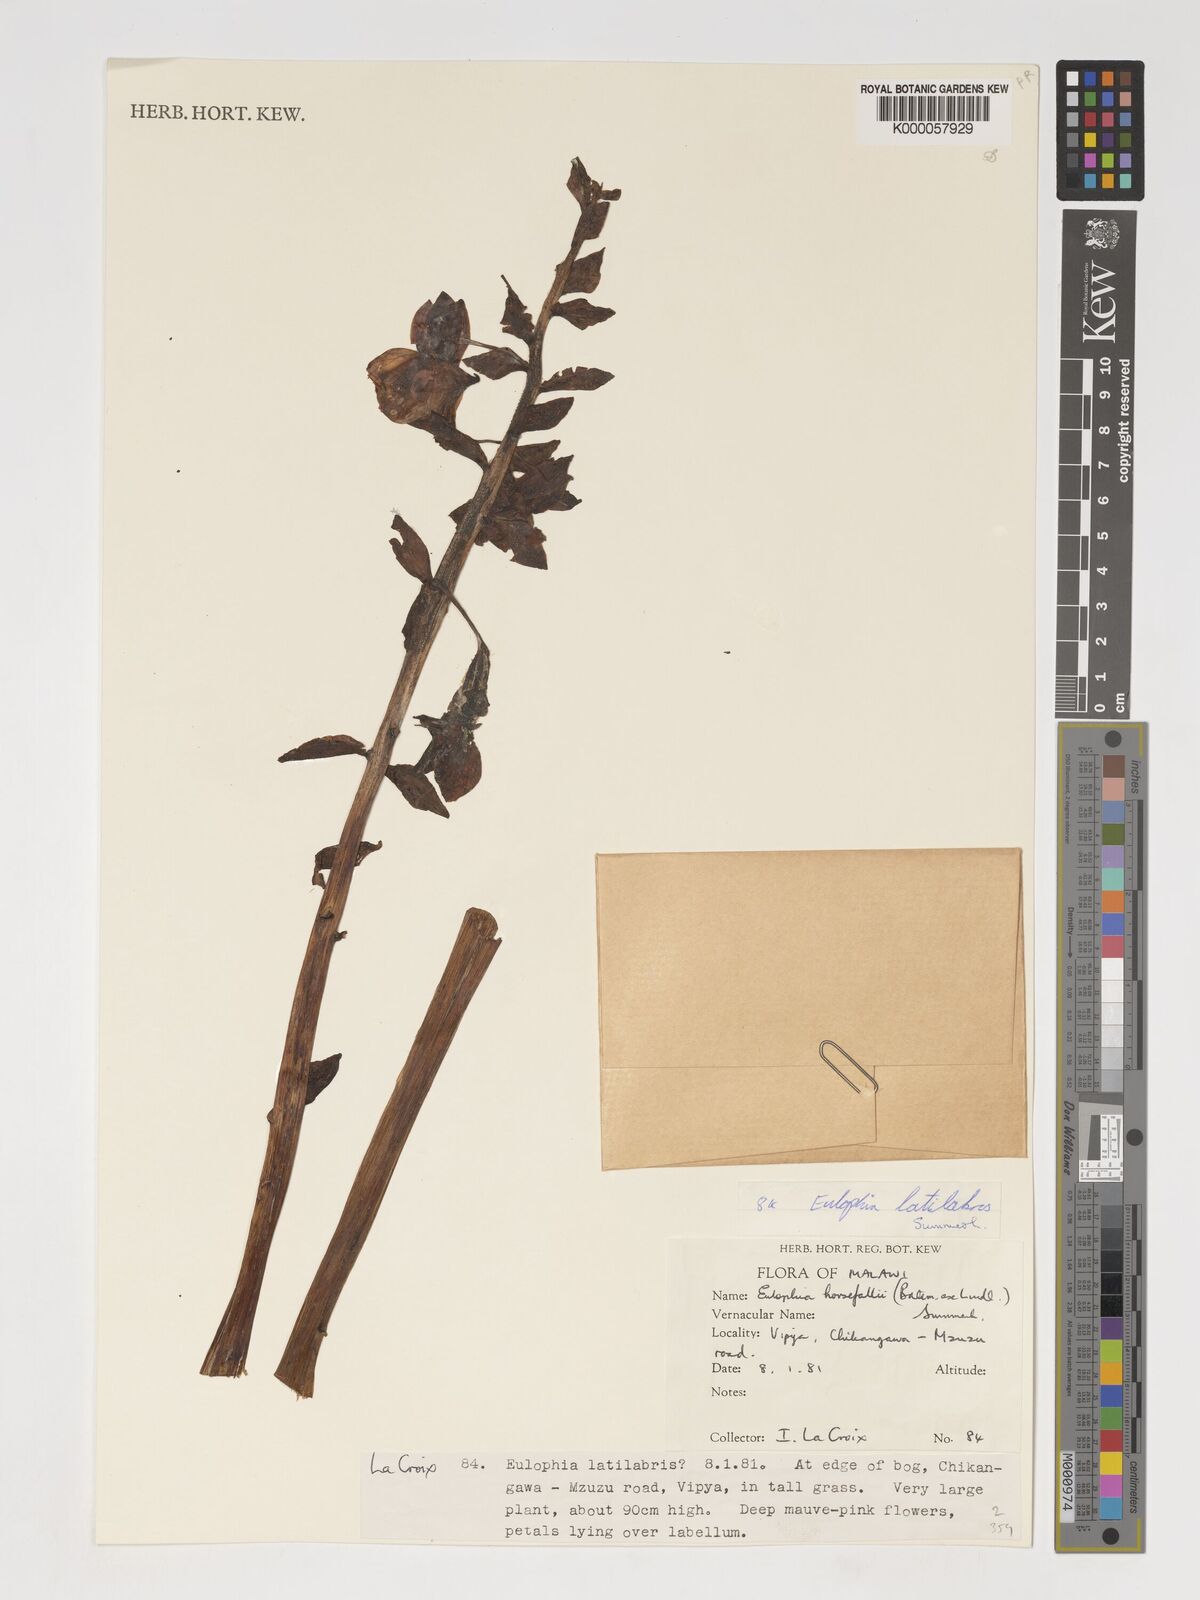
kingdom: Plantae
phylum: Tracheophyta
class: Liliopsida
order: Asparagales
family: Orchidaceae
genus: Eulophia
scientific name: Eulophia latilabris
